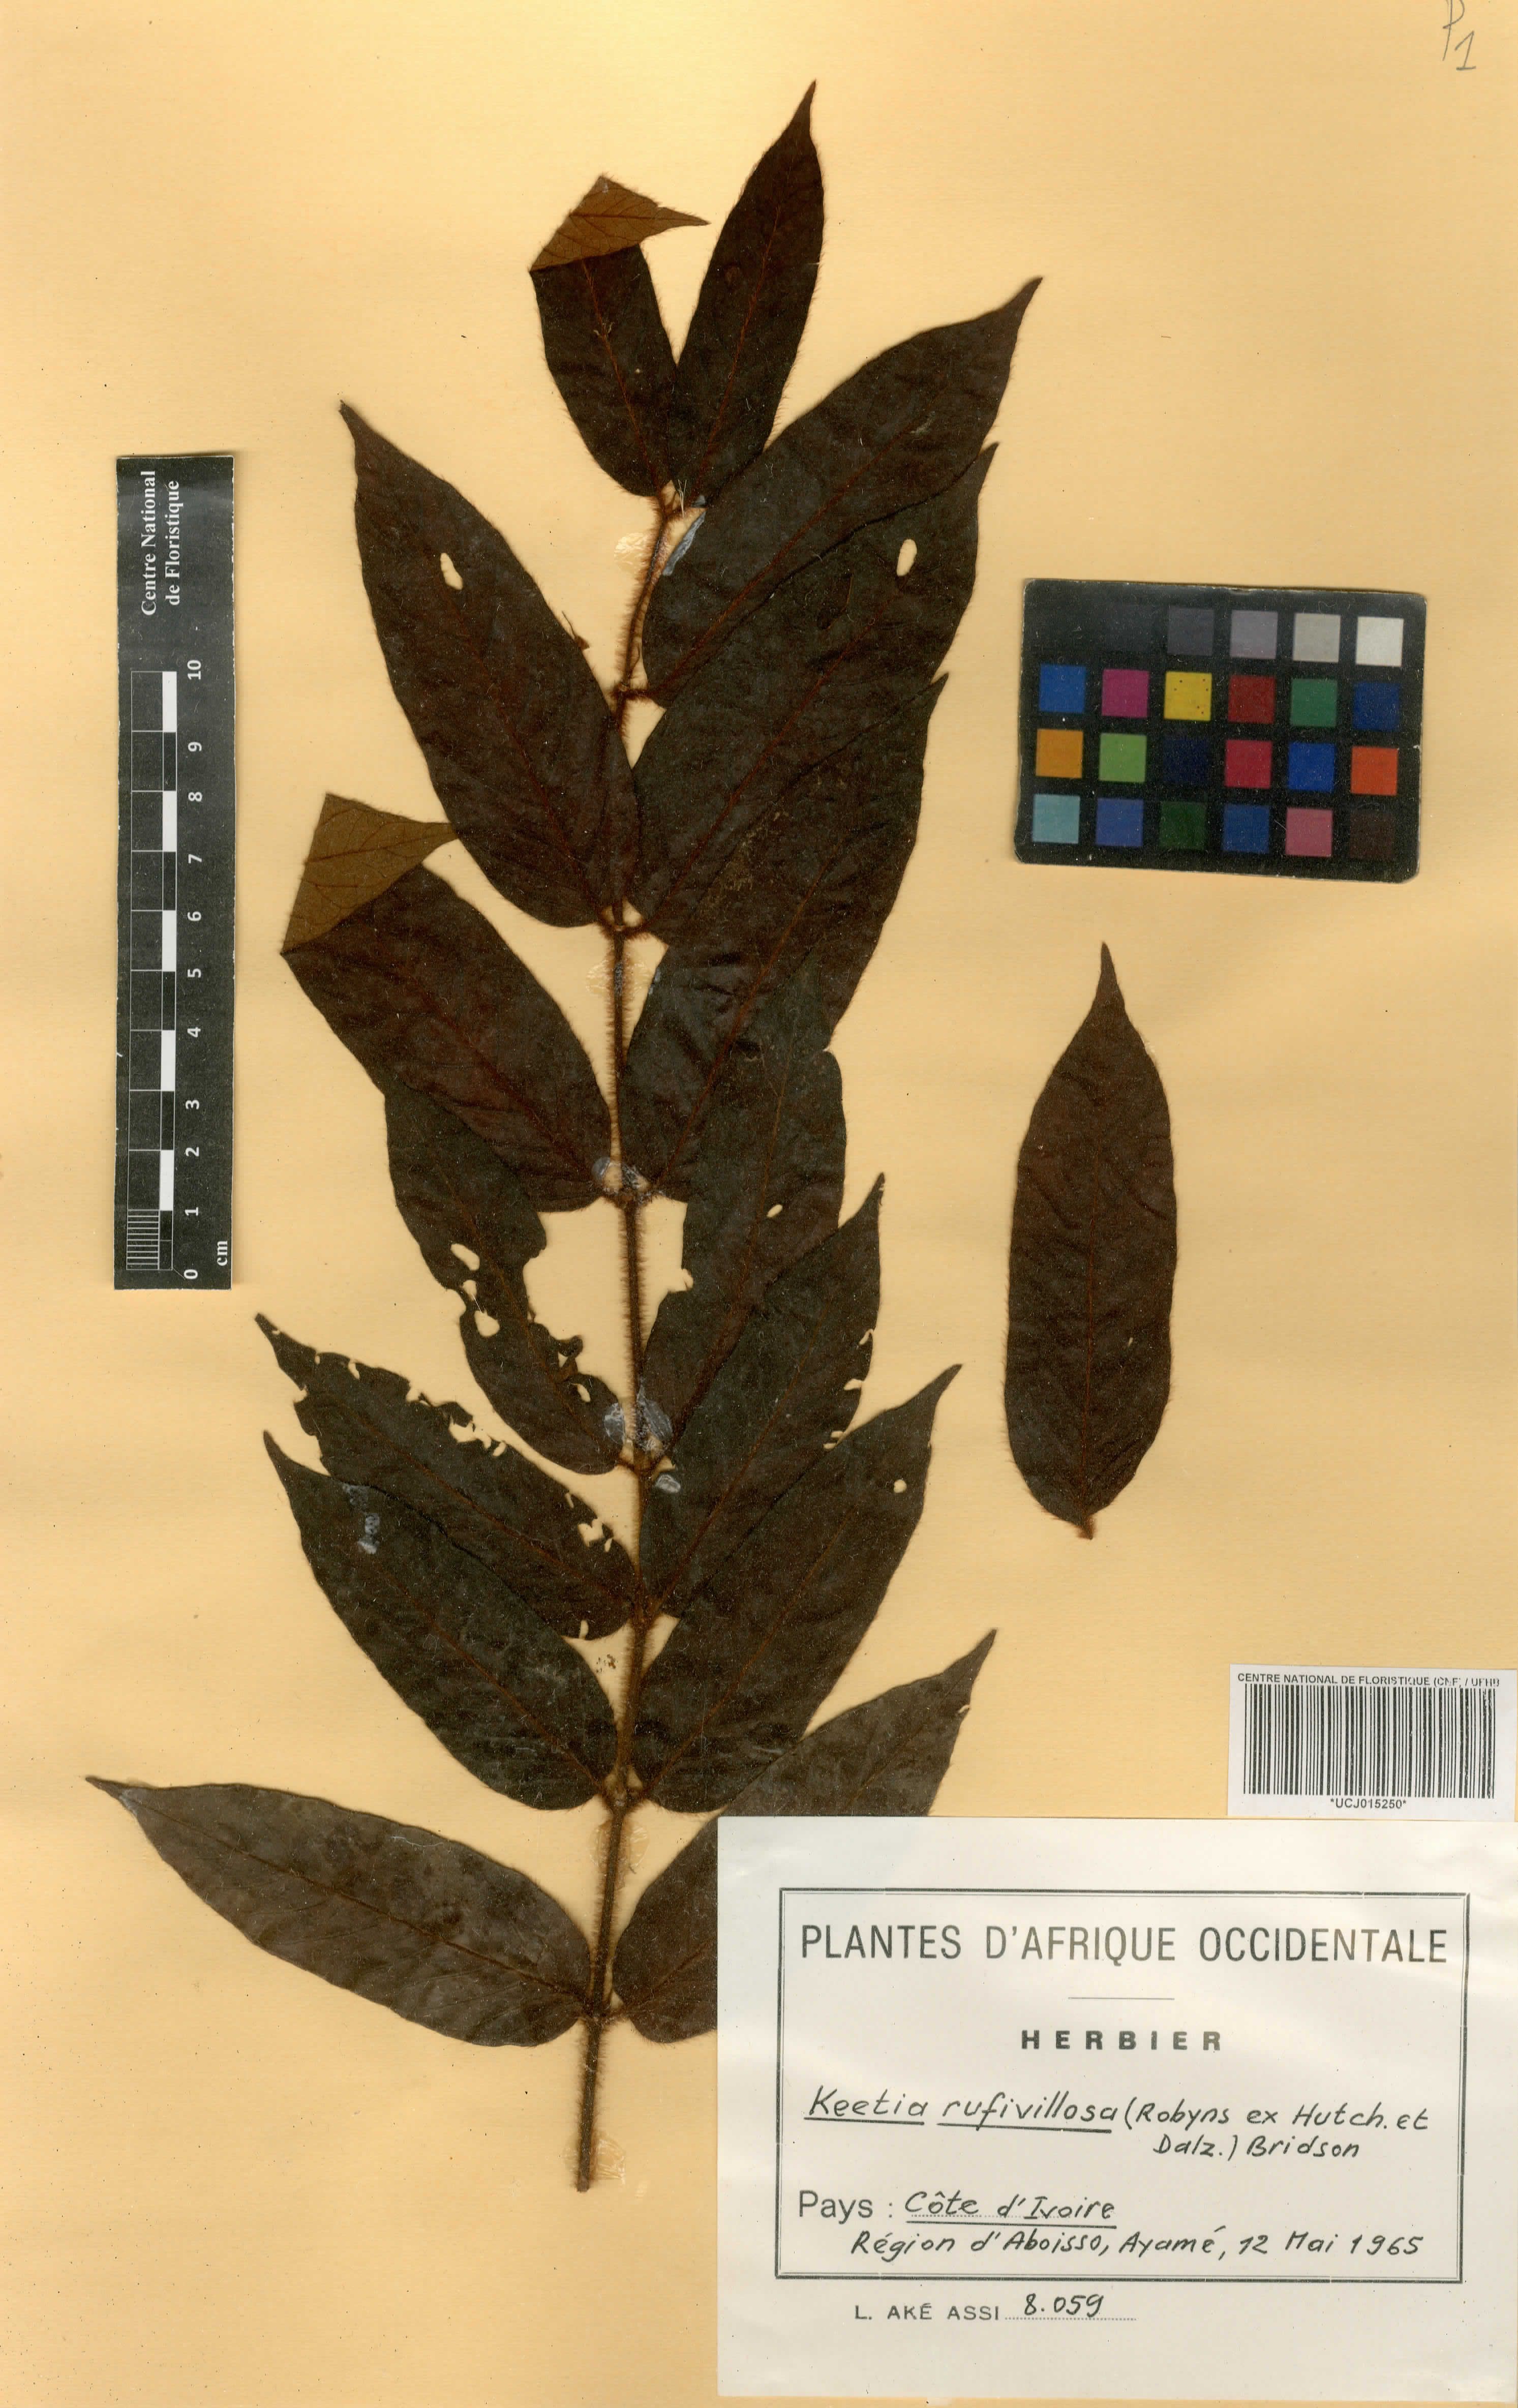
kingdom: Plantae
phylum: Tracheophyta
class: Magnoliopsida
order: Gentianales
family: Rubiaceae
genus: Keetia
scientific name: Keetia rufivillosa
